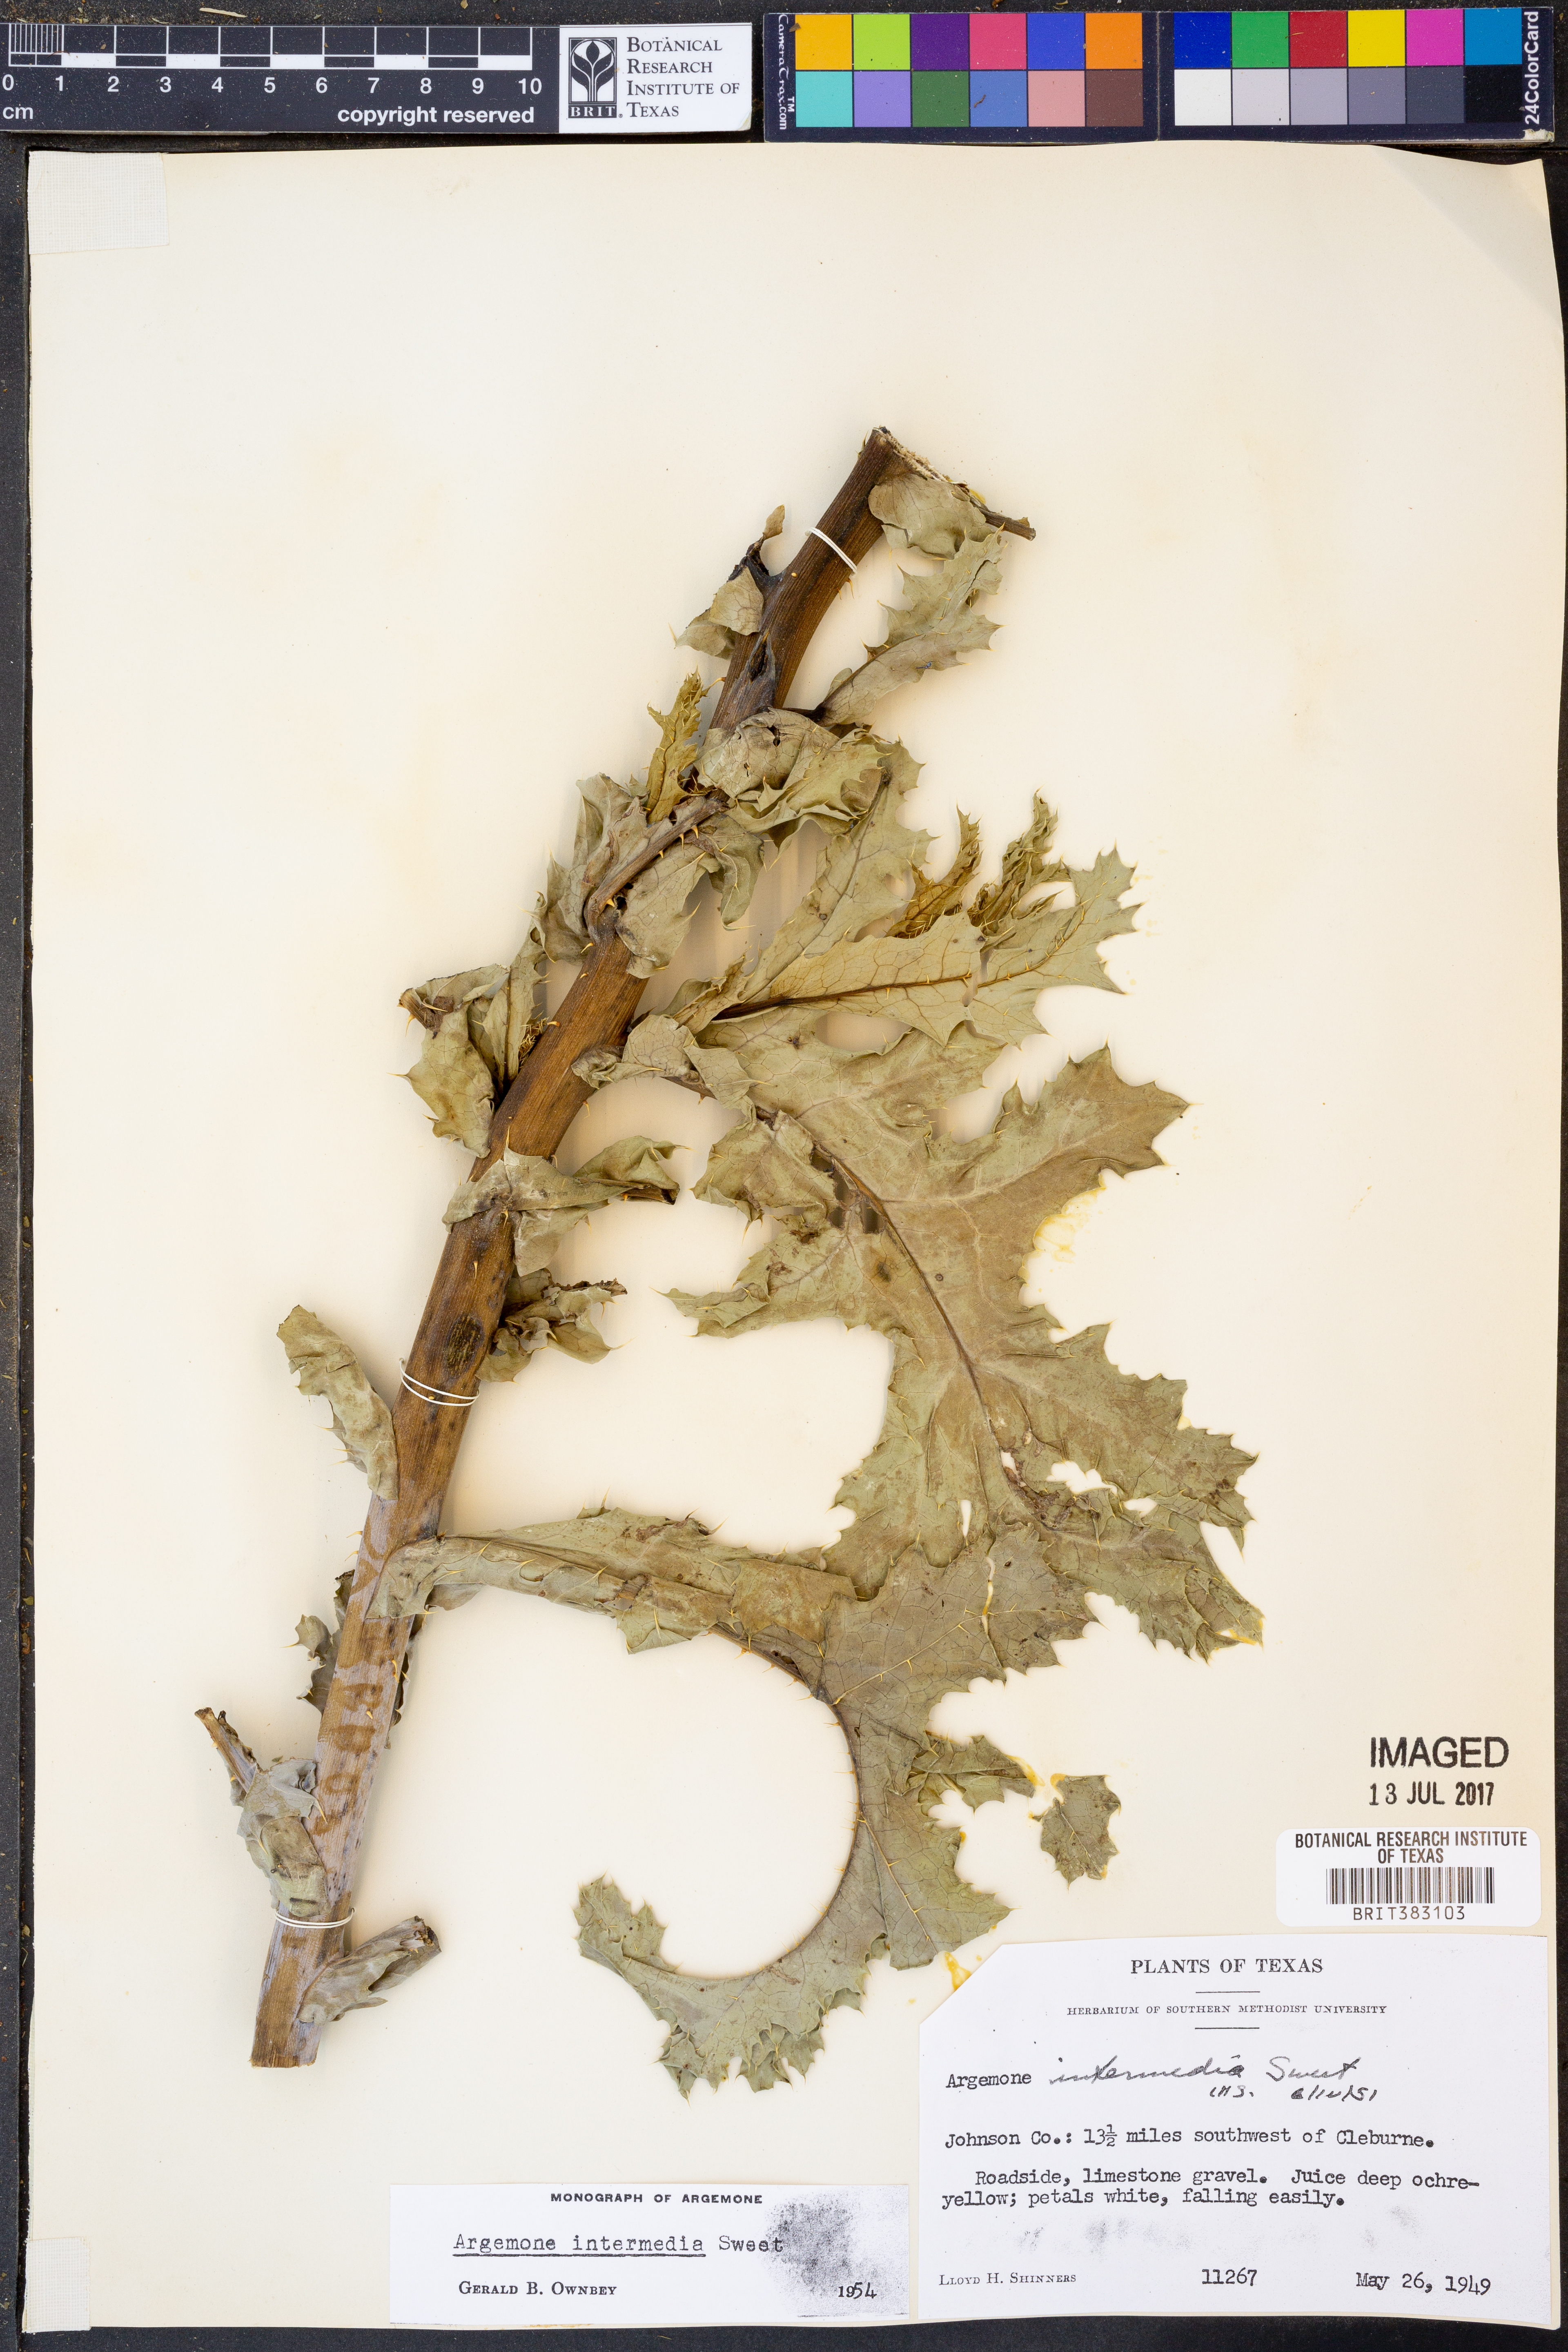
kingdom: Plantae
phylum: Tracheophyta
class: Magnoliopsida
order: Ranunculales
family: Papaveraceae
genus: Argemone
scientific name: Argemone intermedia
